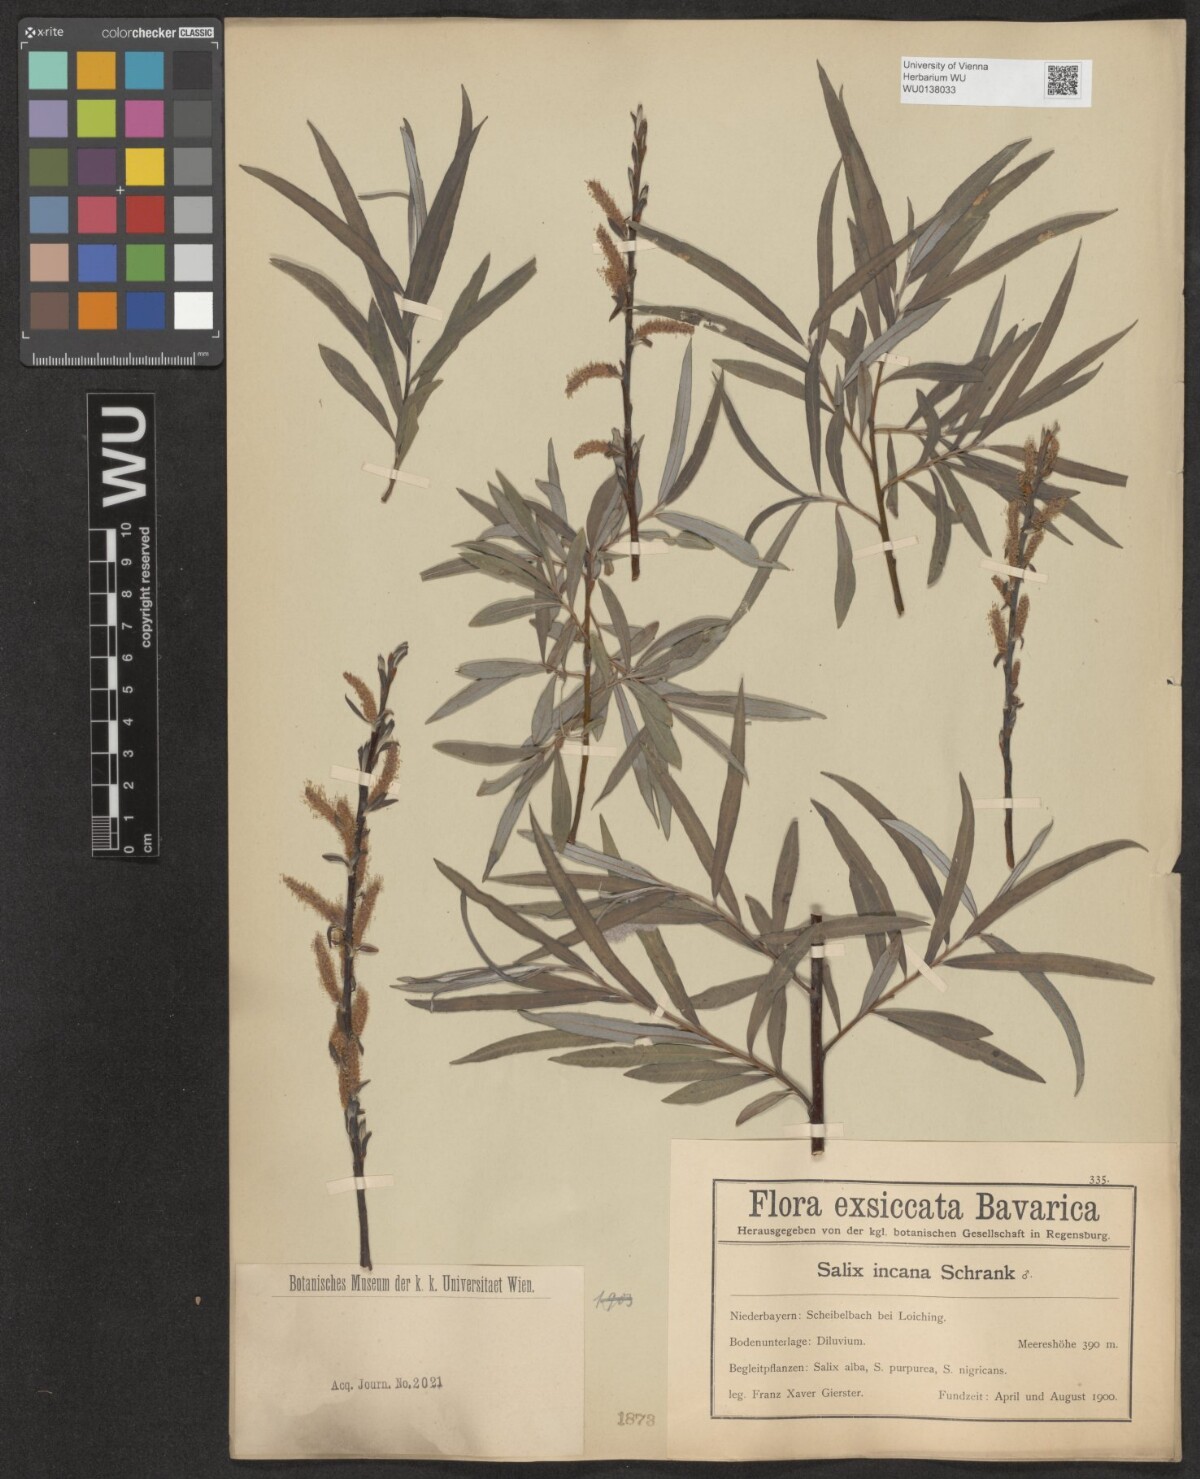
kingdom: Plantae
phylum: Tracheophyta
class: Magnoliopsida
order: Malpighiales
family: Salicaceae
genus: Salix
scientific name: Salix eleagnos
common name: Elaeagnus willow
